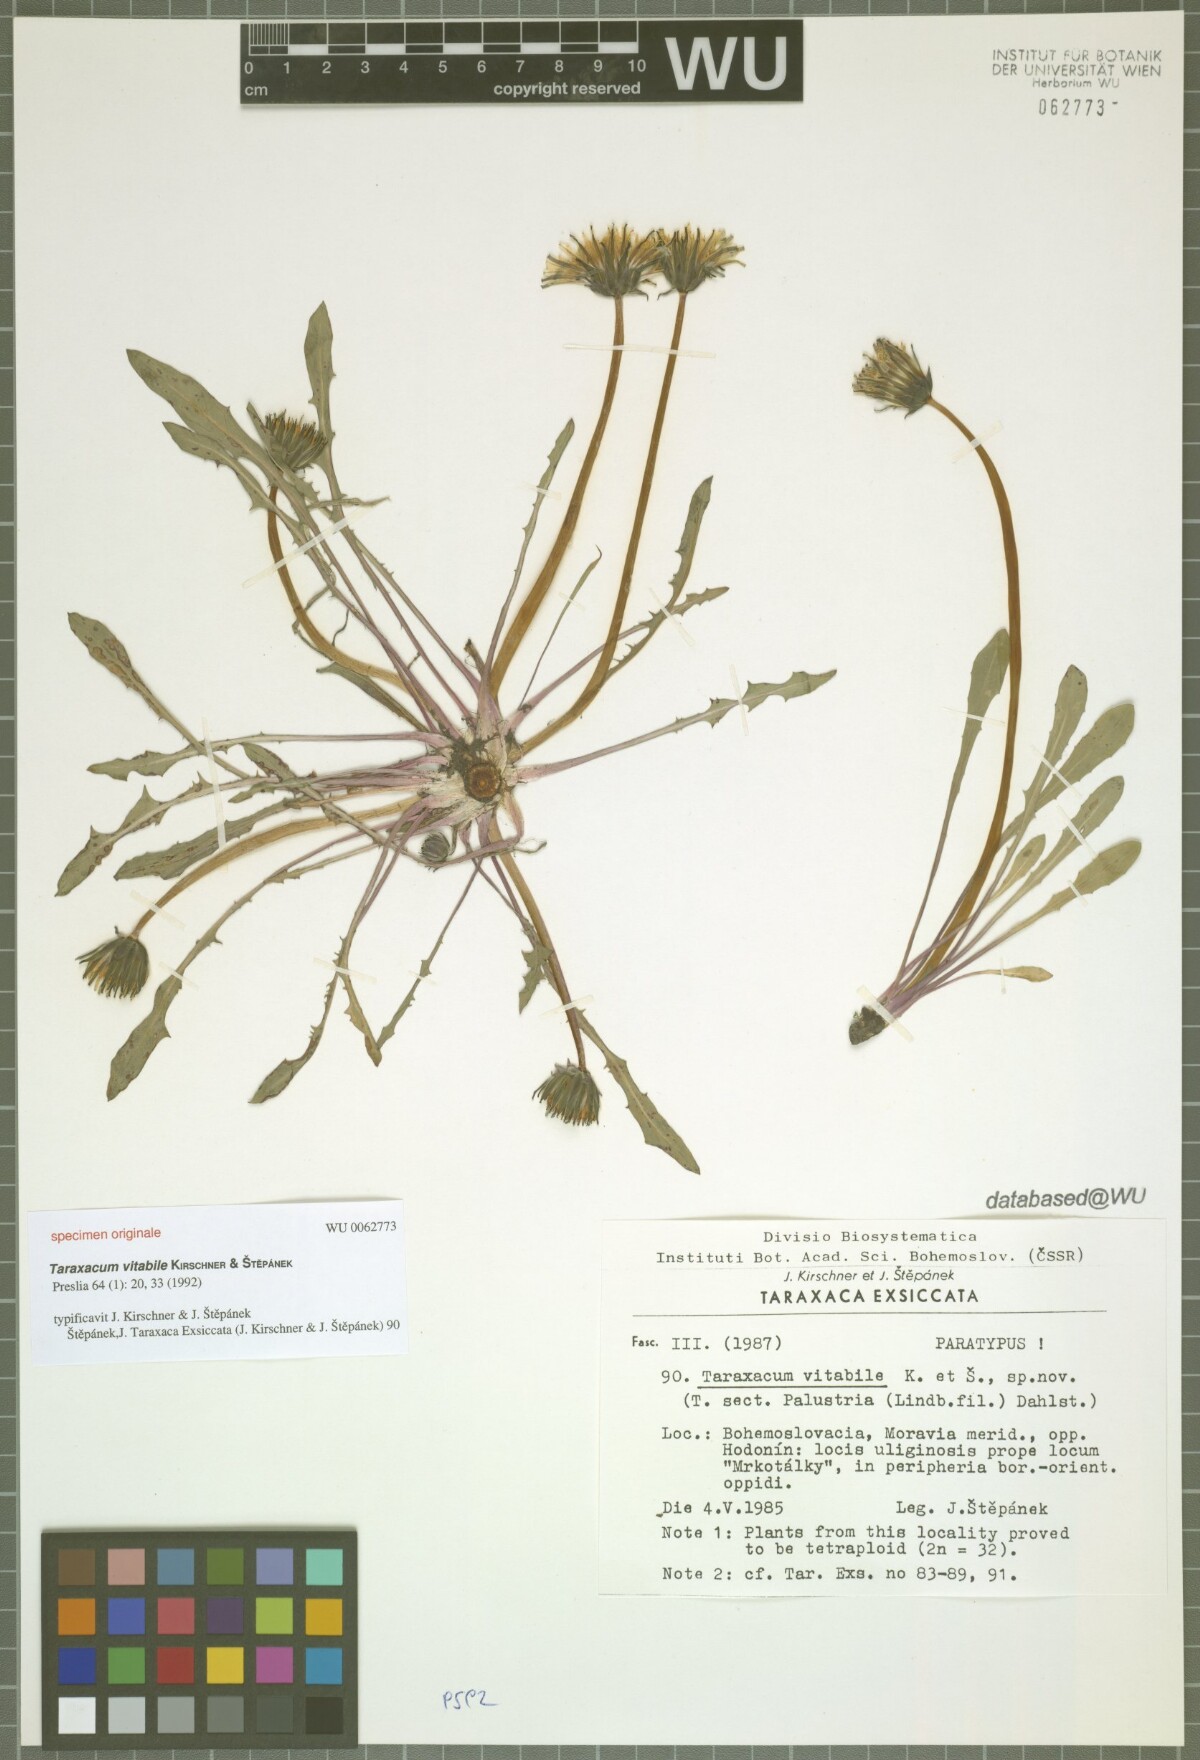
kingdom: Plantae
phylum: Tracheophyta
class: Magnoliopsida
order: Asterales
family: Asteraceae
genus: Taraxacum
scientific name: Taraxacum vindobonense
